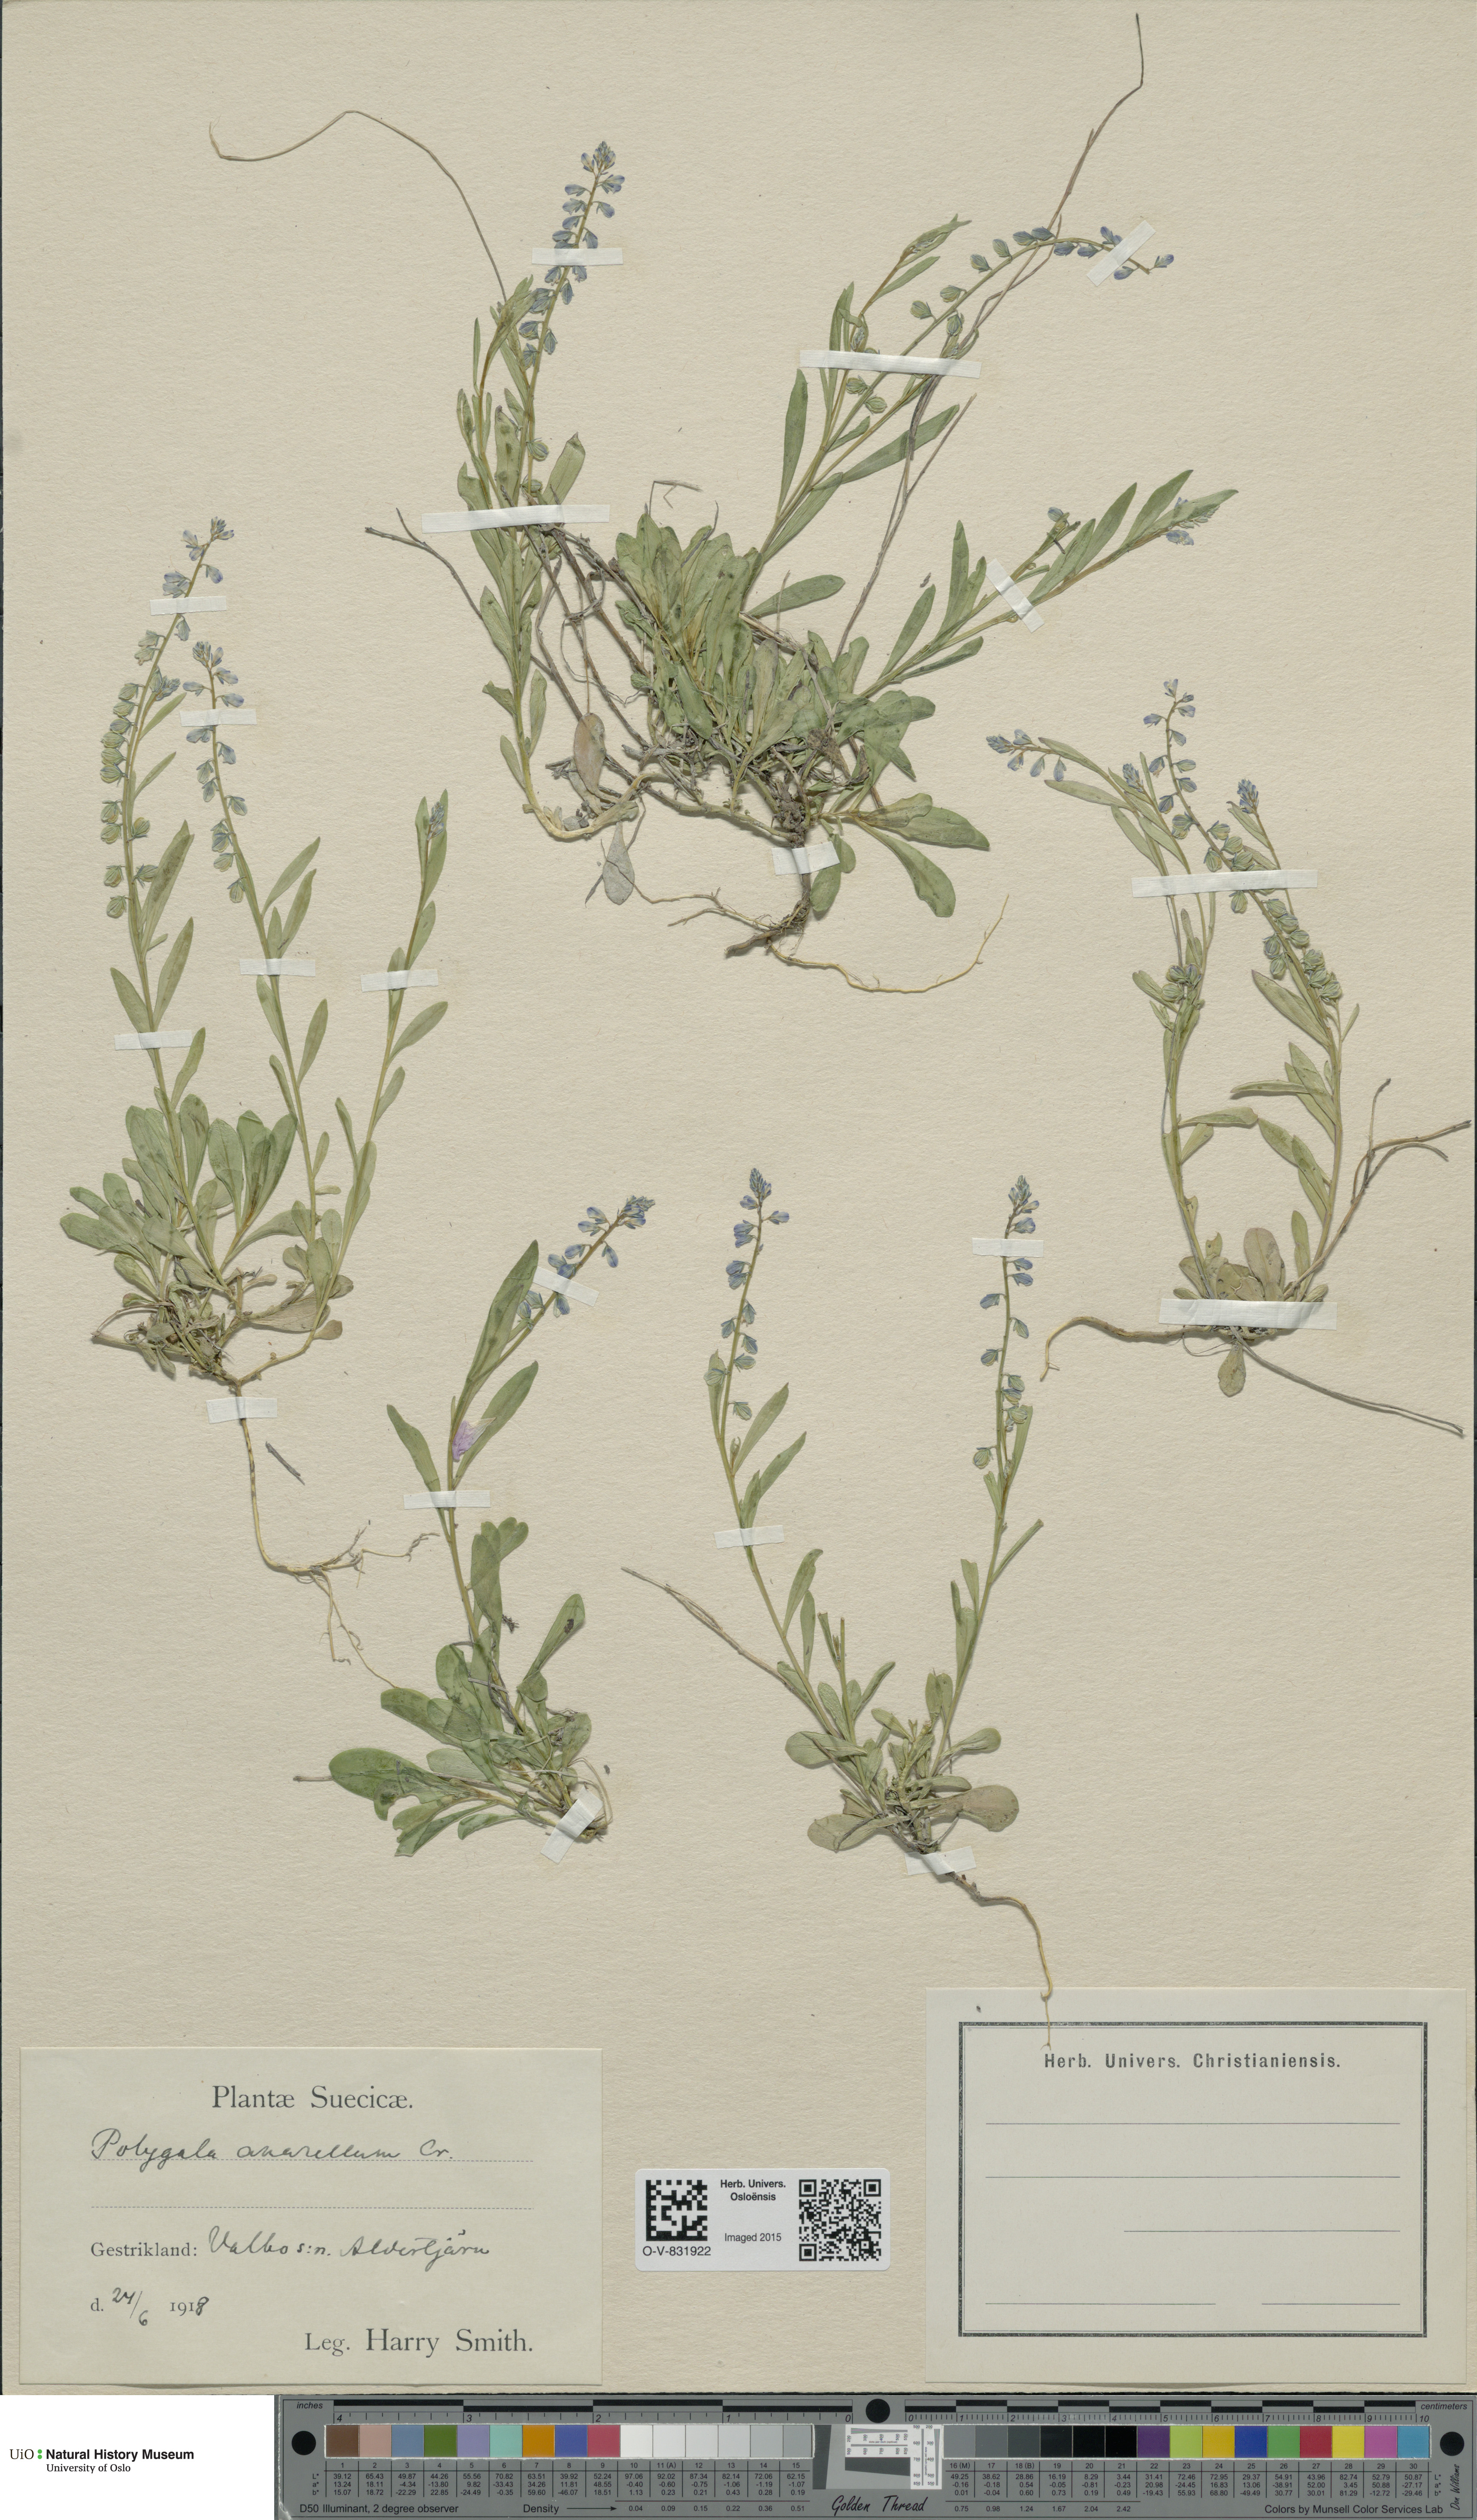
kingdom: Plantae
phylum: Tracheophyta
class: Magnoliopsida
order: Fabales
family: Polygalaceae
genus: Polygala
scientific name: Polygala amarella
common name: Dwarf milkwort
